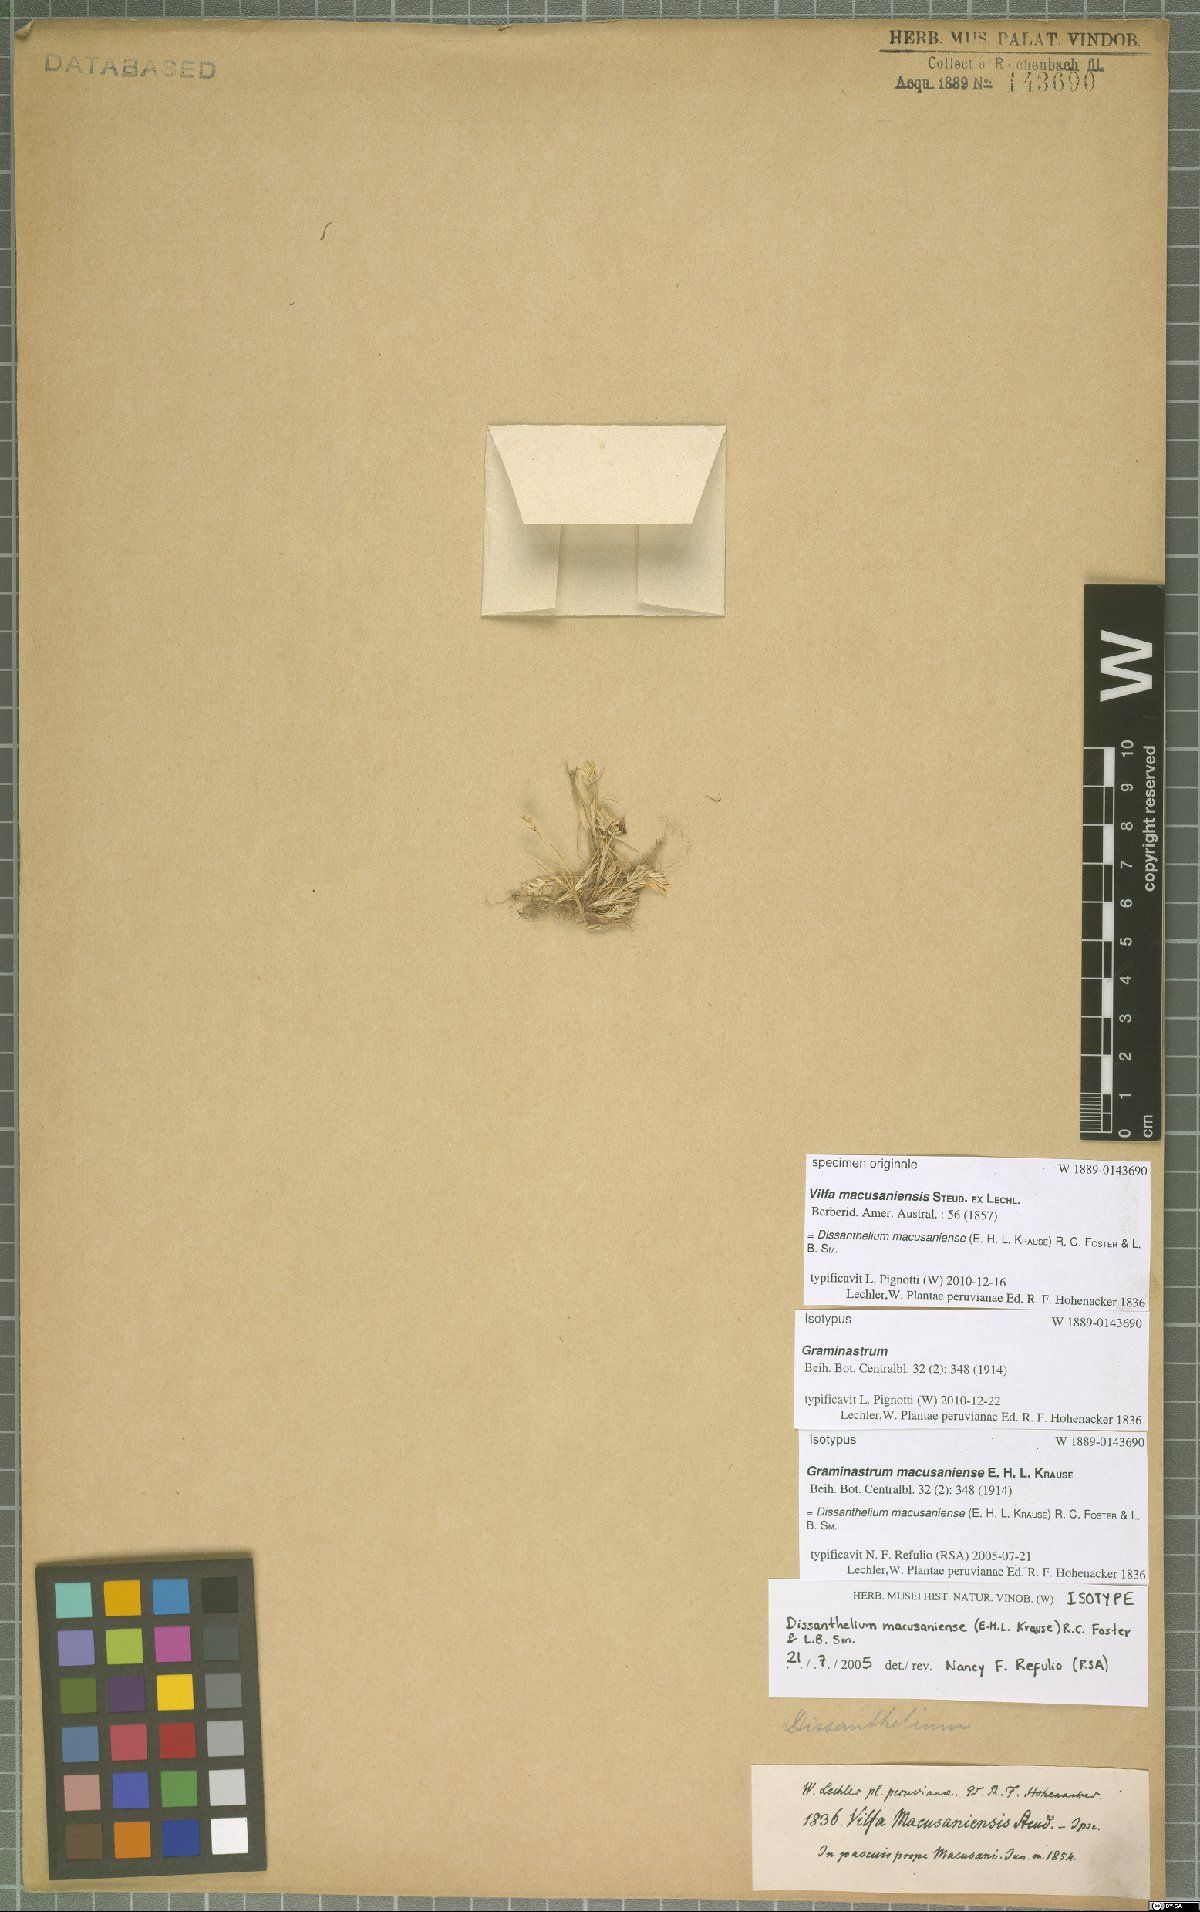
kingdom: Plantae
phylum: Tracheophyta
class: Liliopsida
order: Poales
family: Poaceae
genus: Poa
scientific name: Poa macusaniensis
